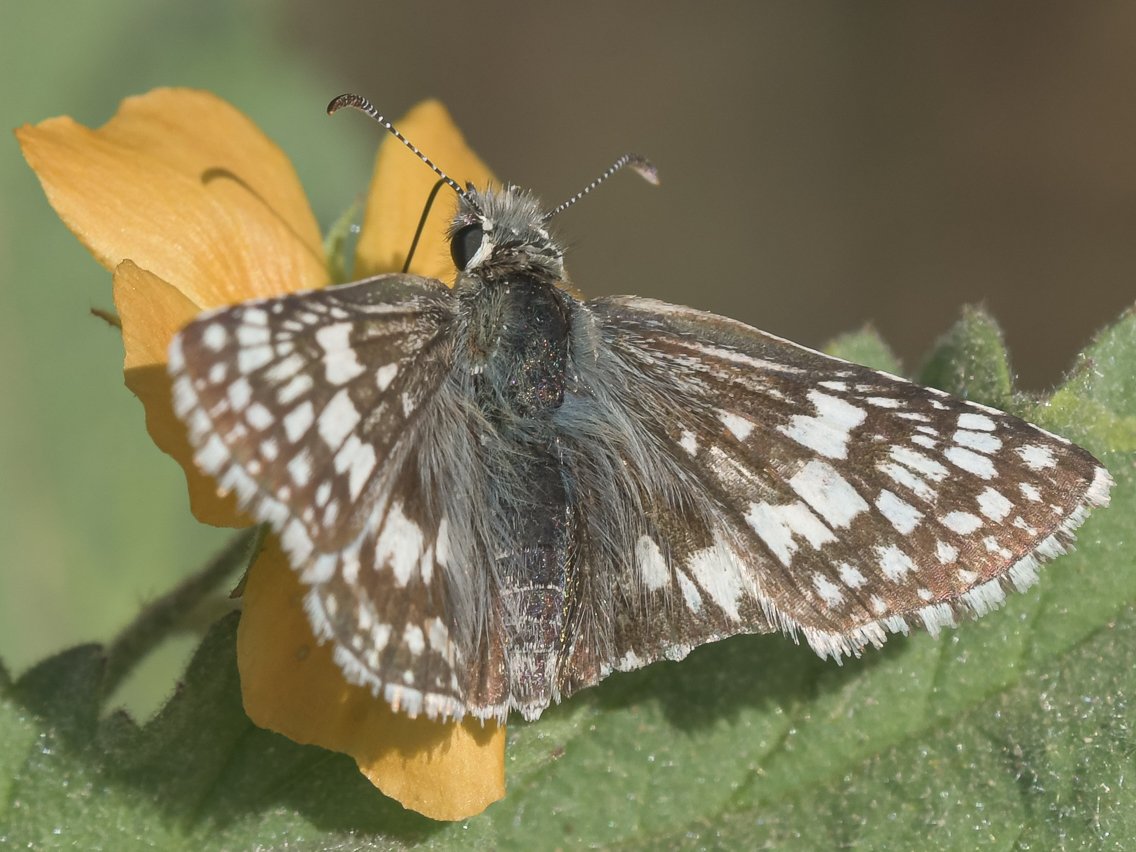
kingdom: Animalia
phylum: Arthropoda
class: Insecta
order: Lepidoptera
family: Hesperiidae
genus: Pyrgus
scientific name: Pyrgus communis
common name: White Checkered-Skipper
